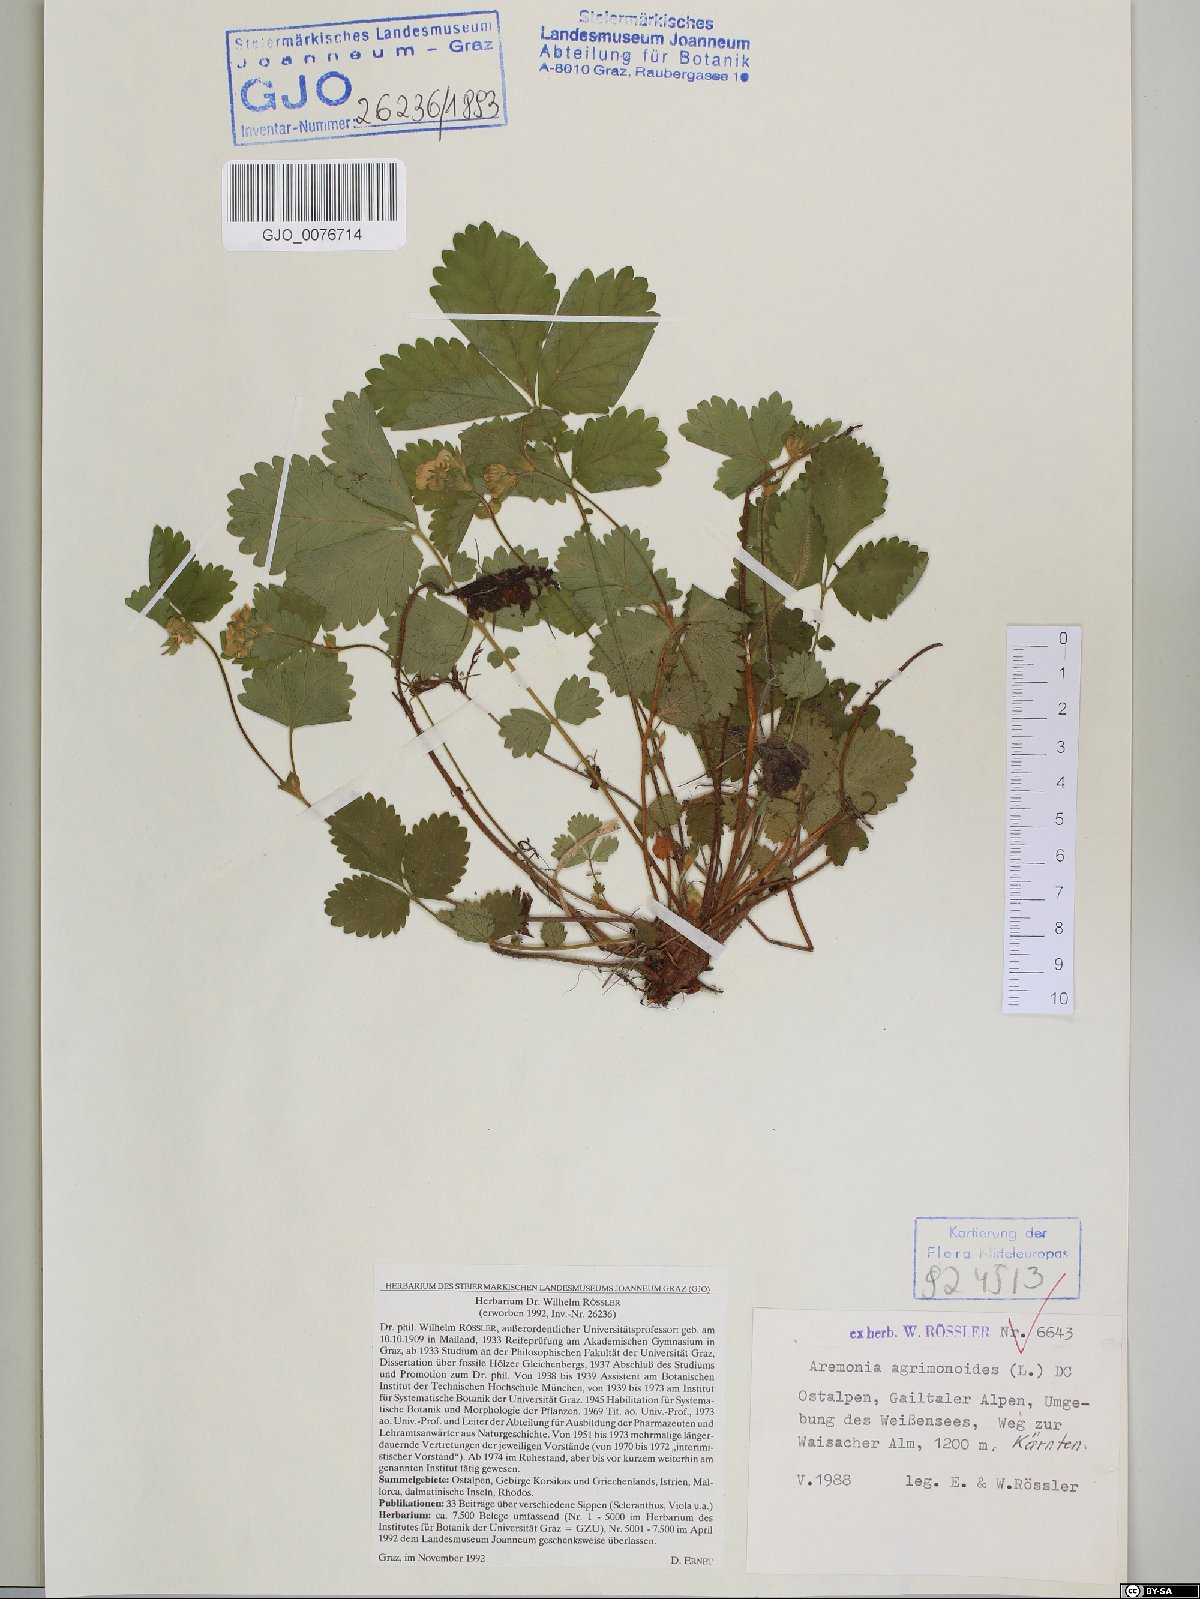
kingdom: Plantae
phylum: Tracheophyta
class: Magnoliopsida
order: Rosales
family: Rosaceae
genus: Aremonia
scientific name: Aremonia agrimonoides
